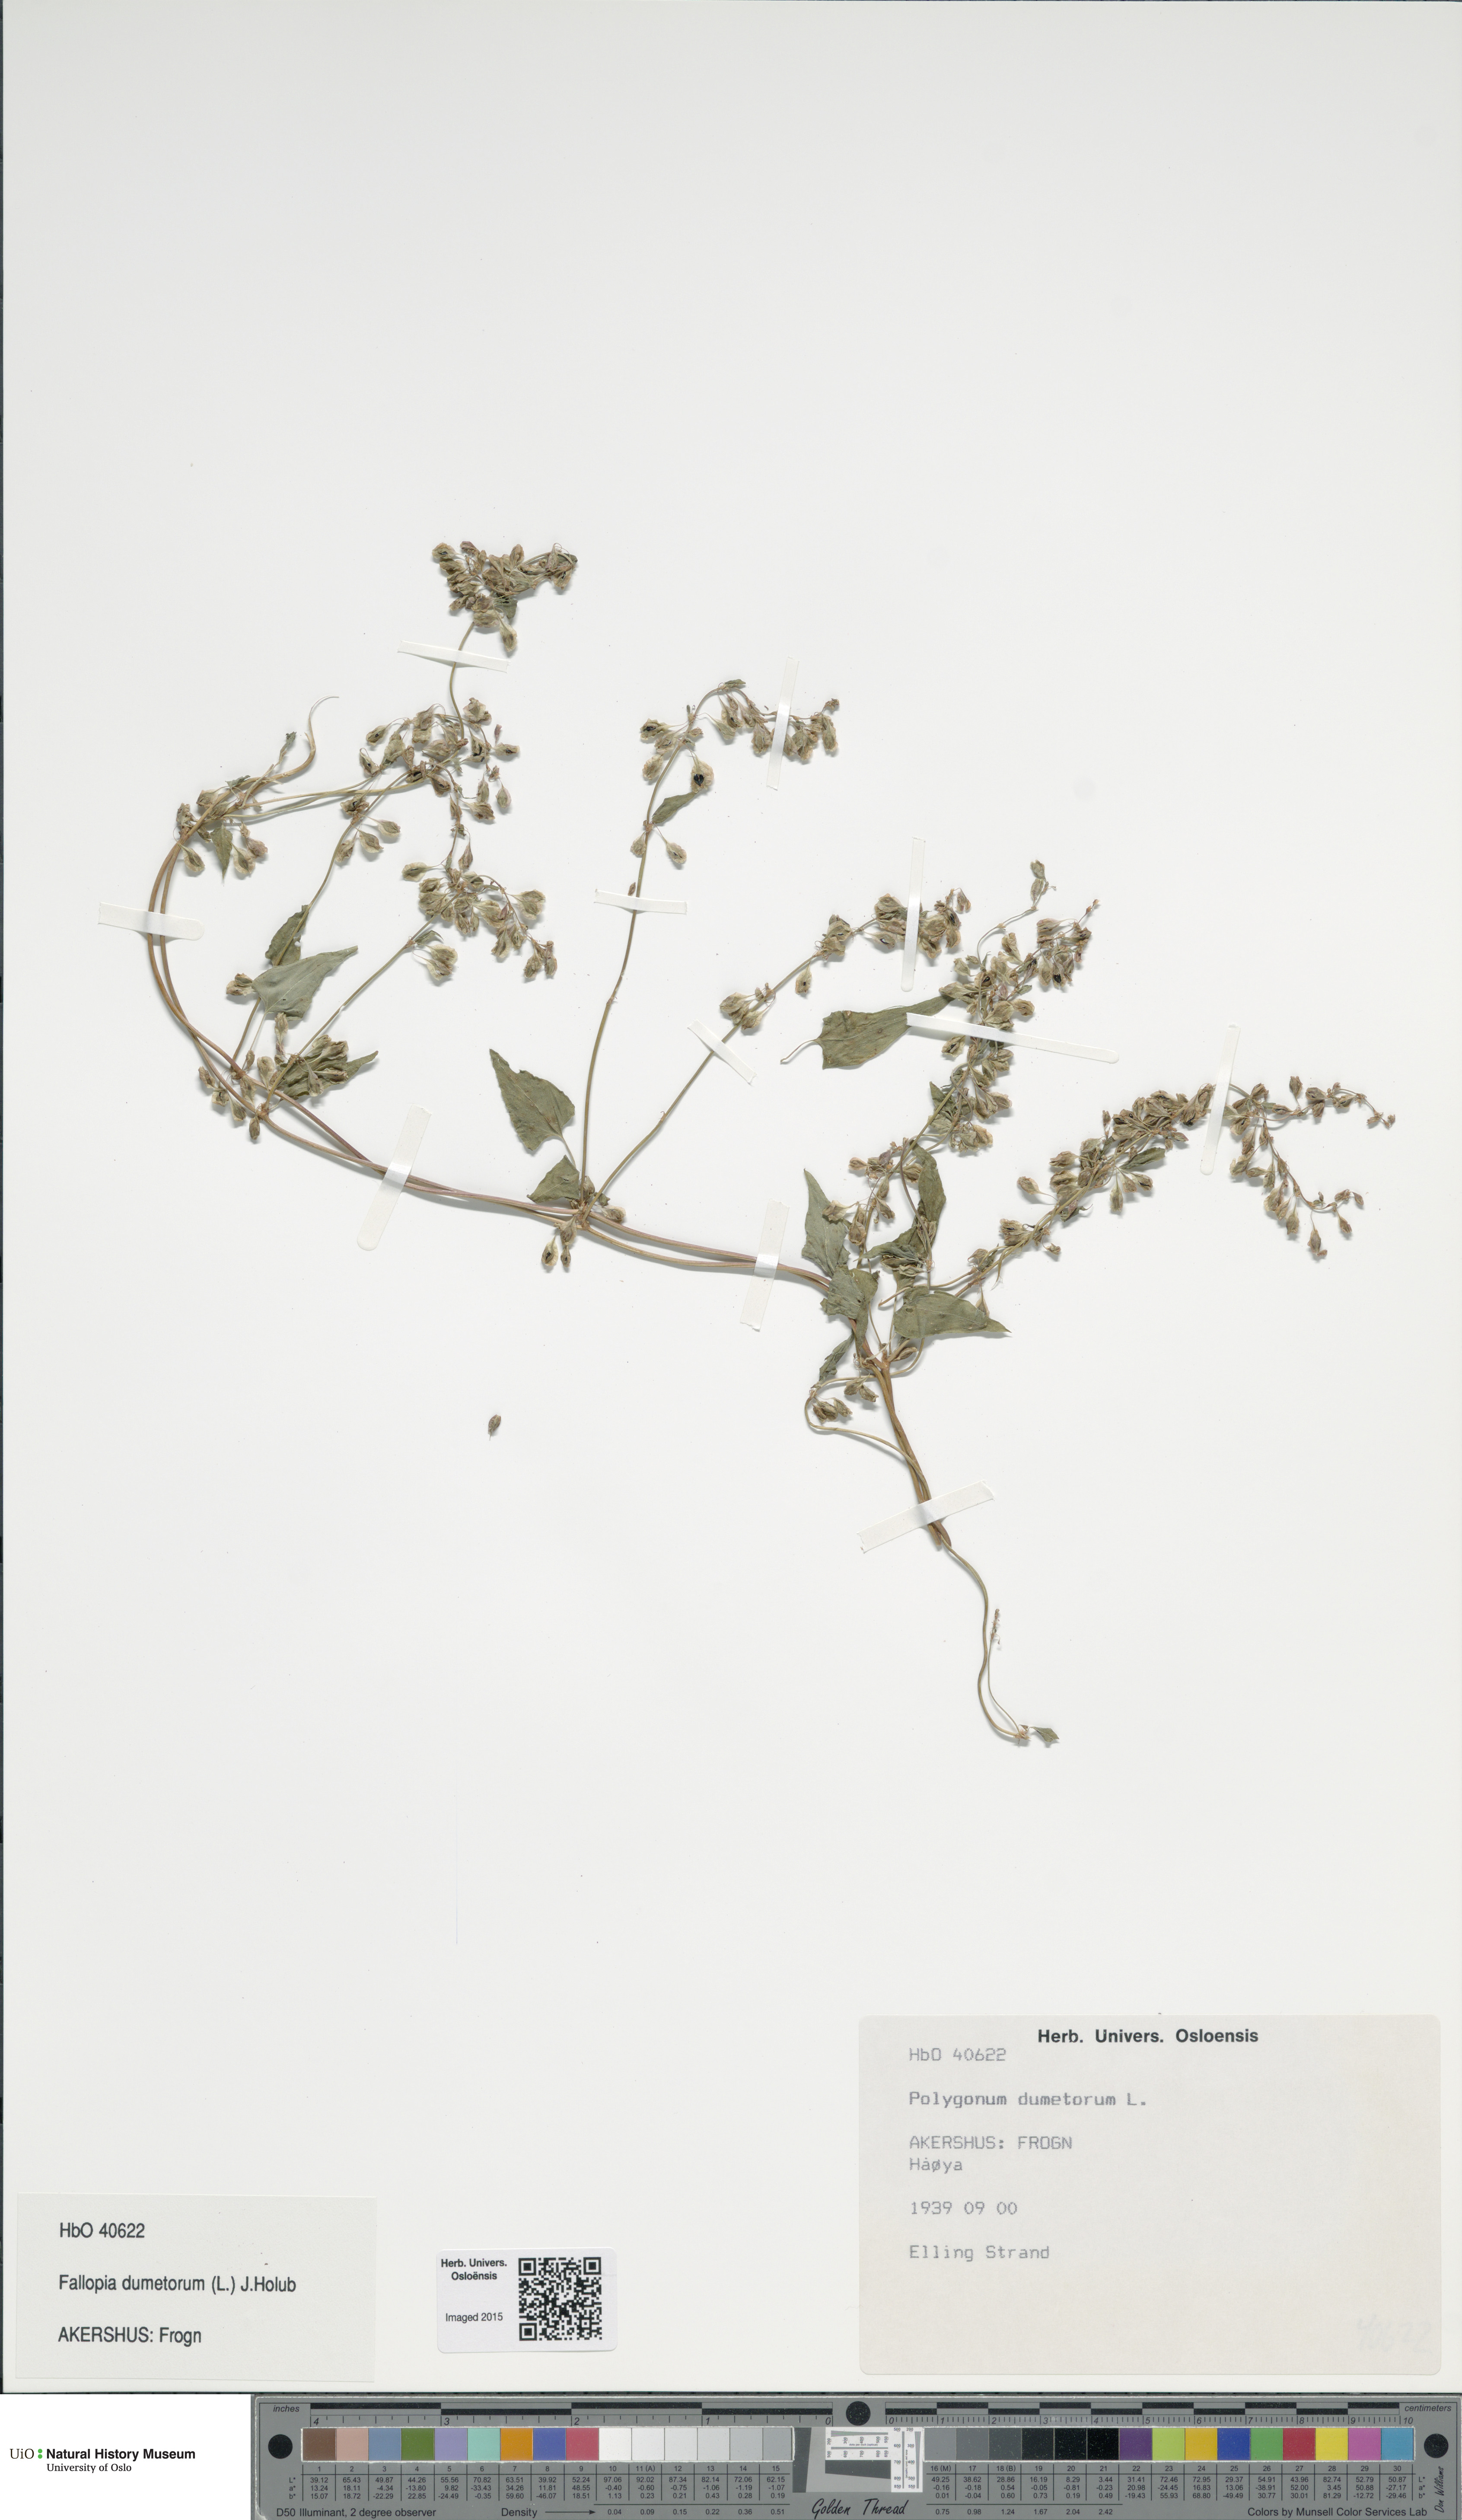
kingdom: Plantae
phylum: Tracheophyta
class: Magnoliopsida
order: Caryophyllales
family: Polygonaceae
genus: Fallopia
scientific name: Fallopia dumetorum
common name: Copse-bindweed
